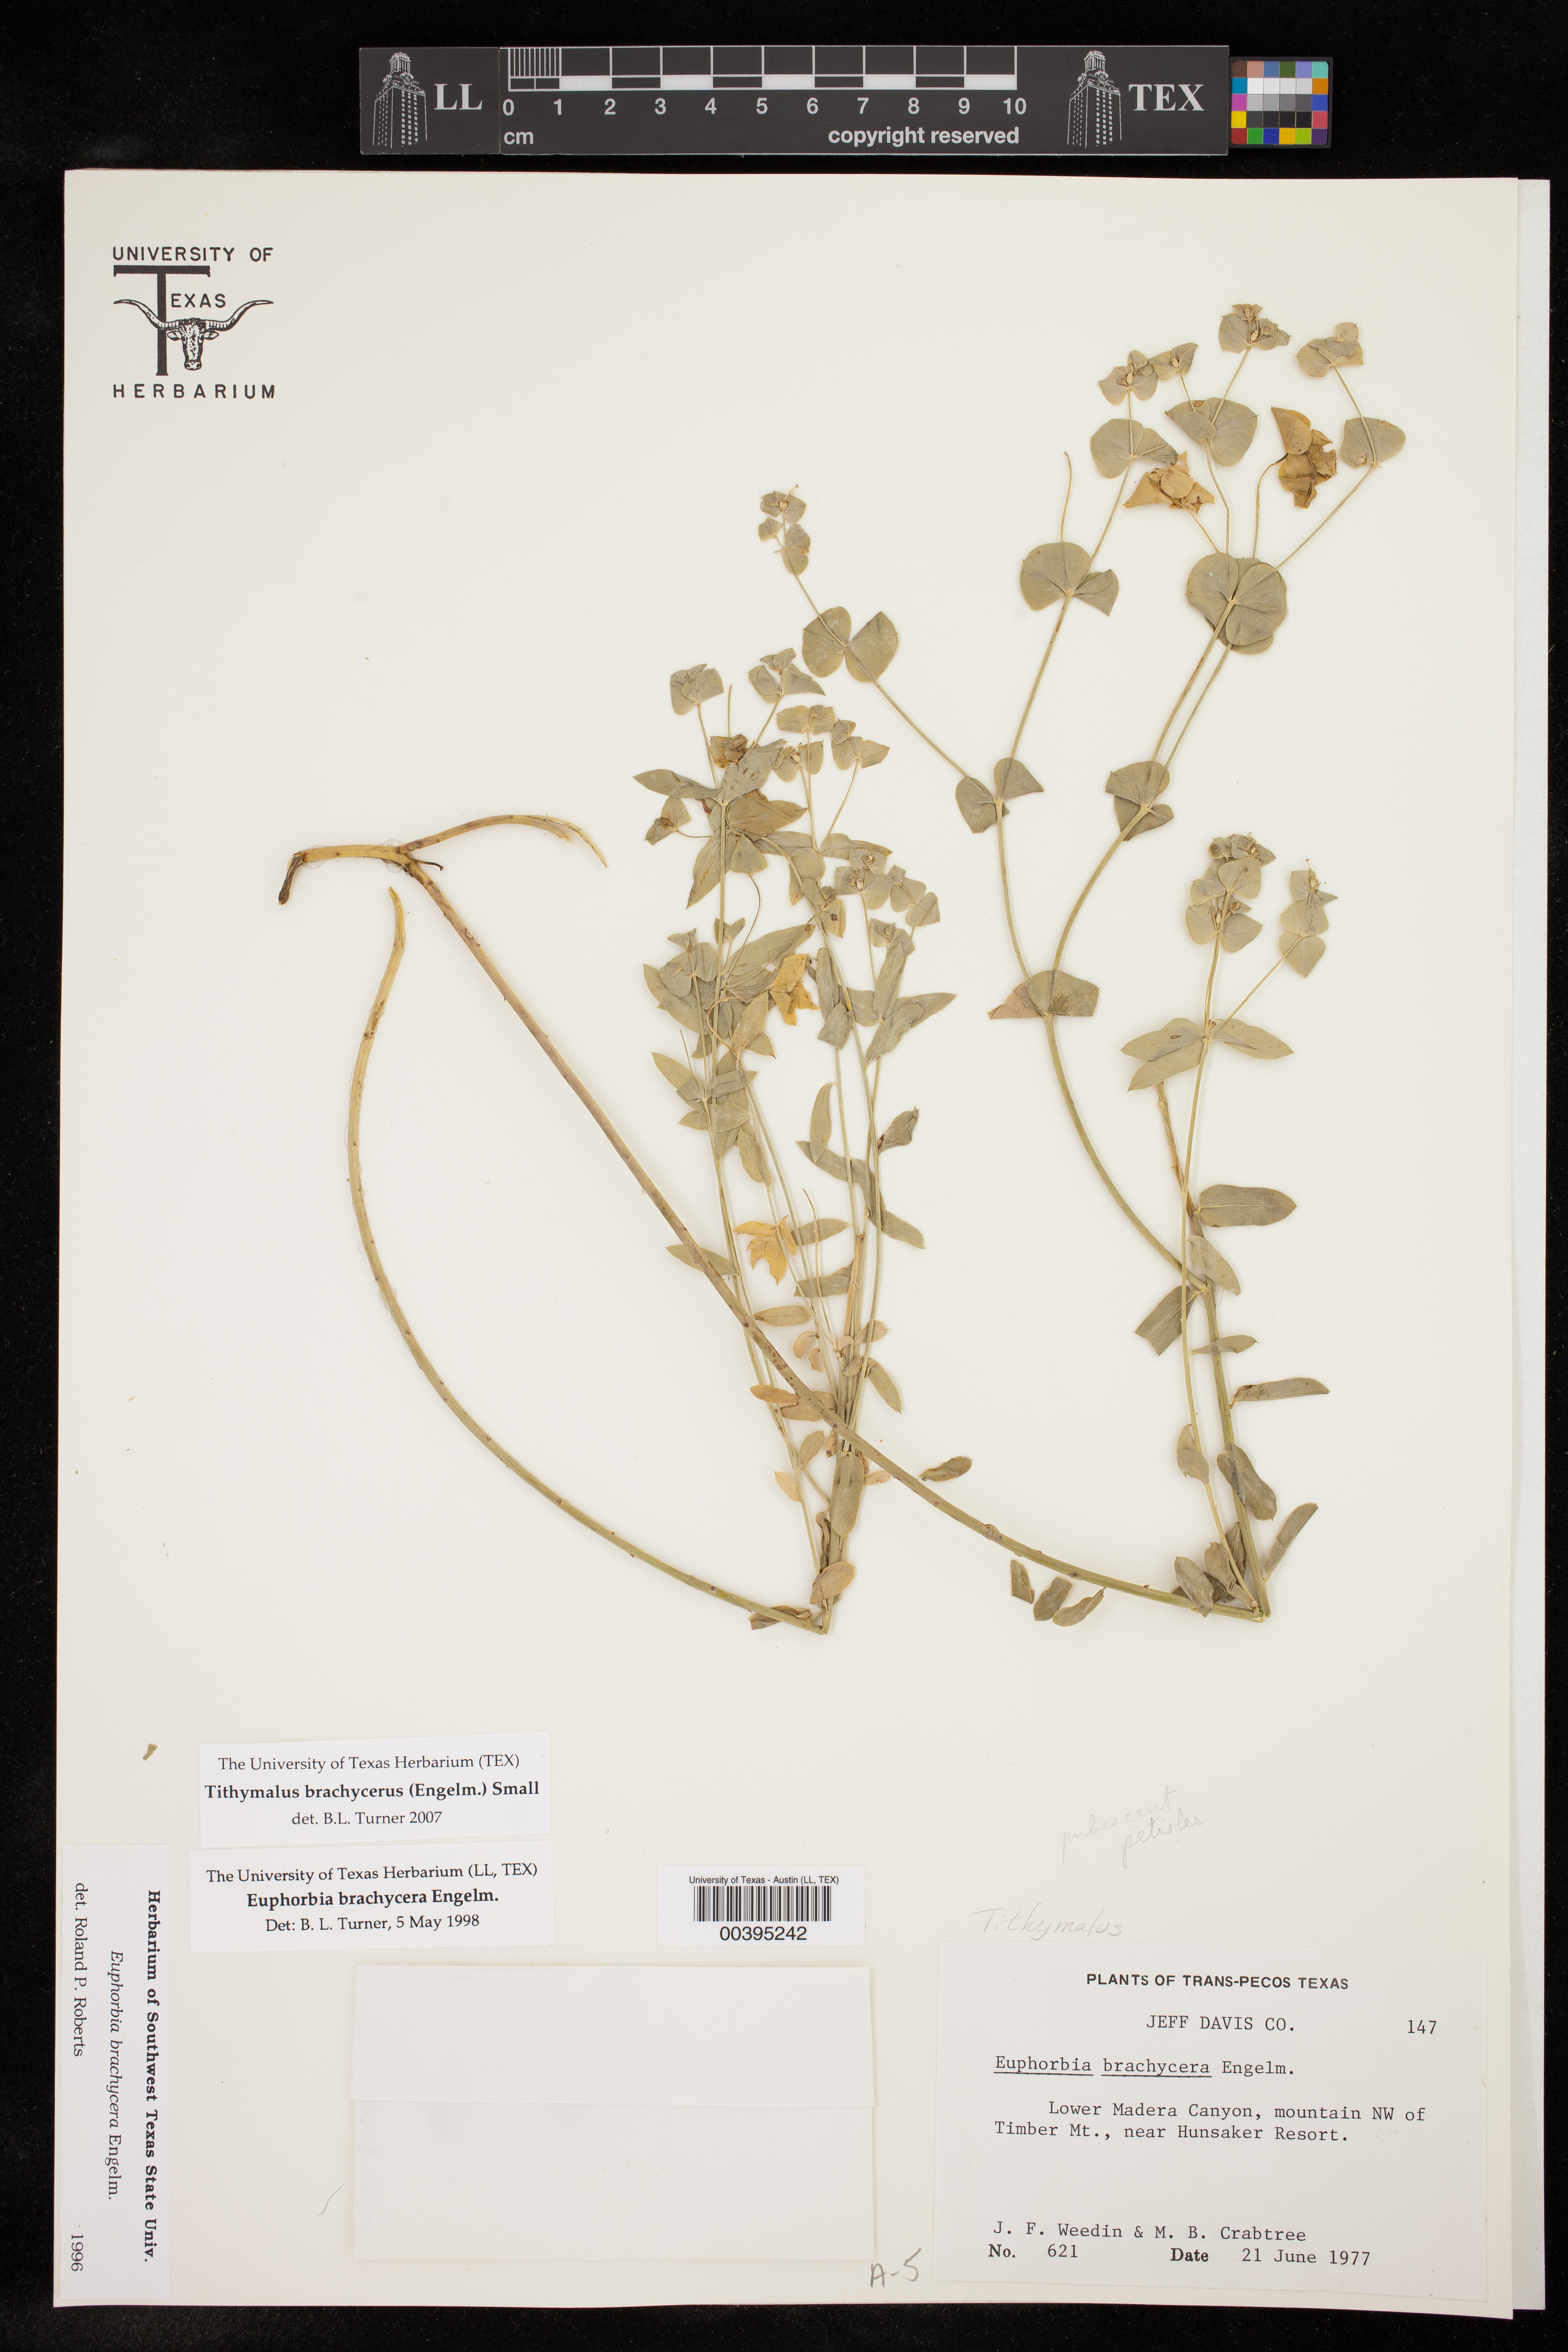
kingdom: Plantae
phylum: Tracheophyta
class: Magnoliopsida
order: Malpighiales
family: Euphorbiaceae
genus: Euphorbia
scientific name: Euphorbia brachycera
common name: Shorthorn spurge
